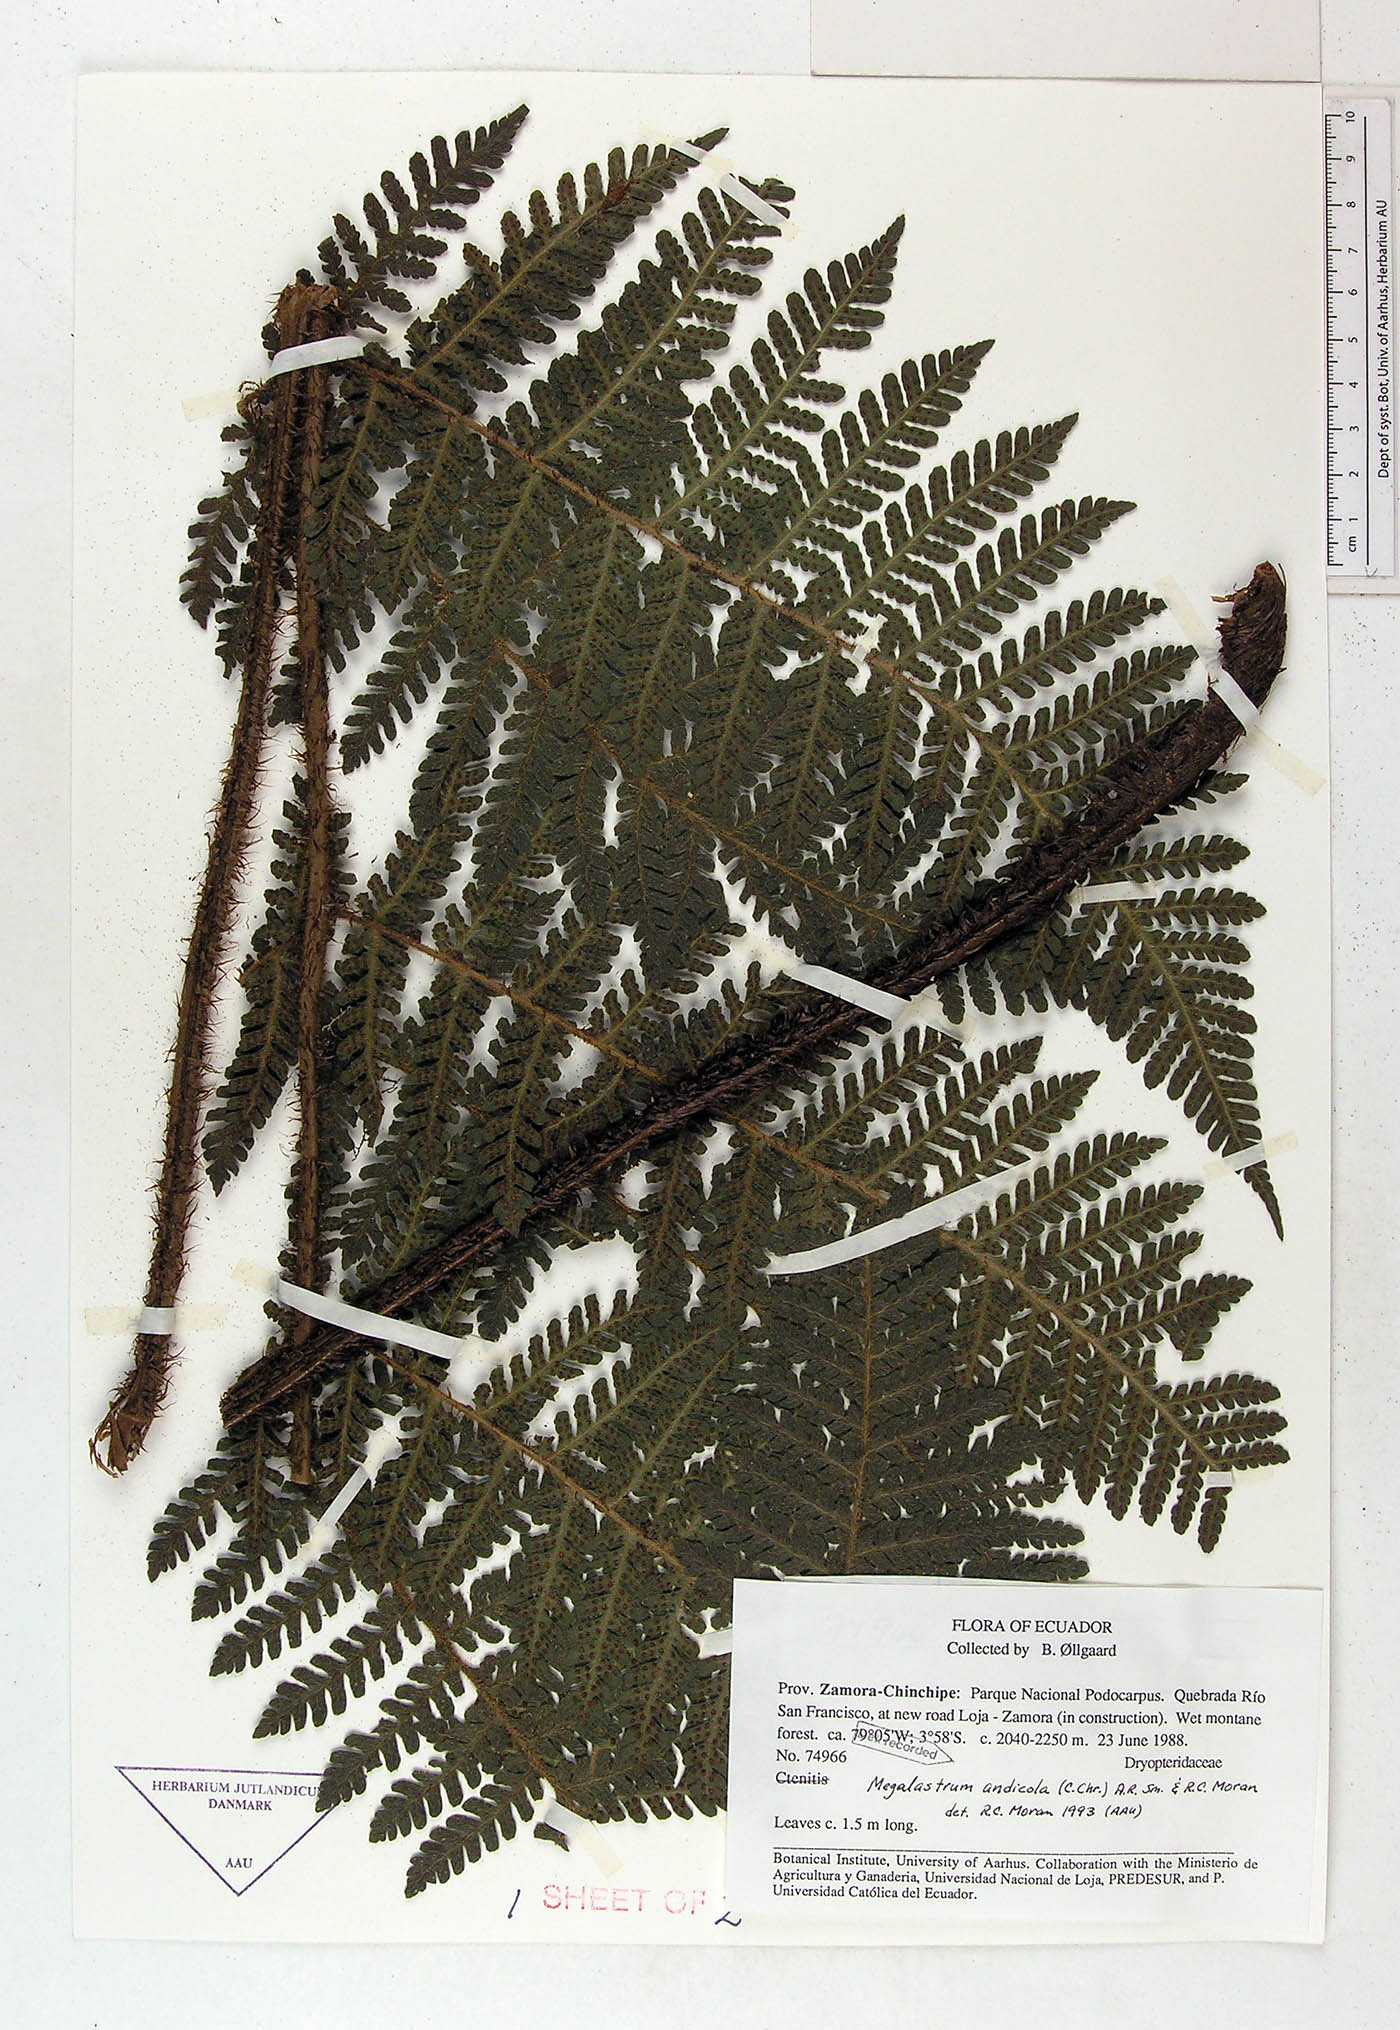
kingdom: Plantae
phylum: Tracheophyta
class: Polypodiopsida
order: Polypodiales
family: Dryopteridaceae
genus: Megalastrum
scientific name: Megalastrum insigne
